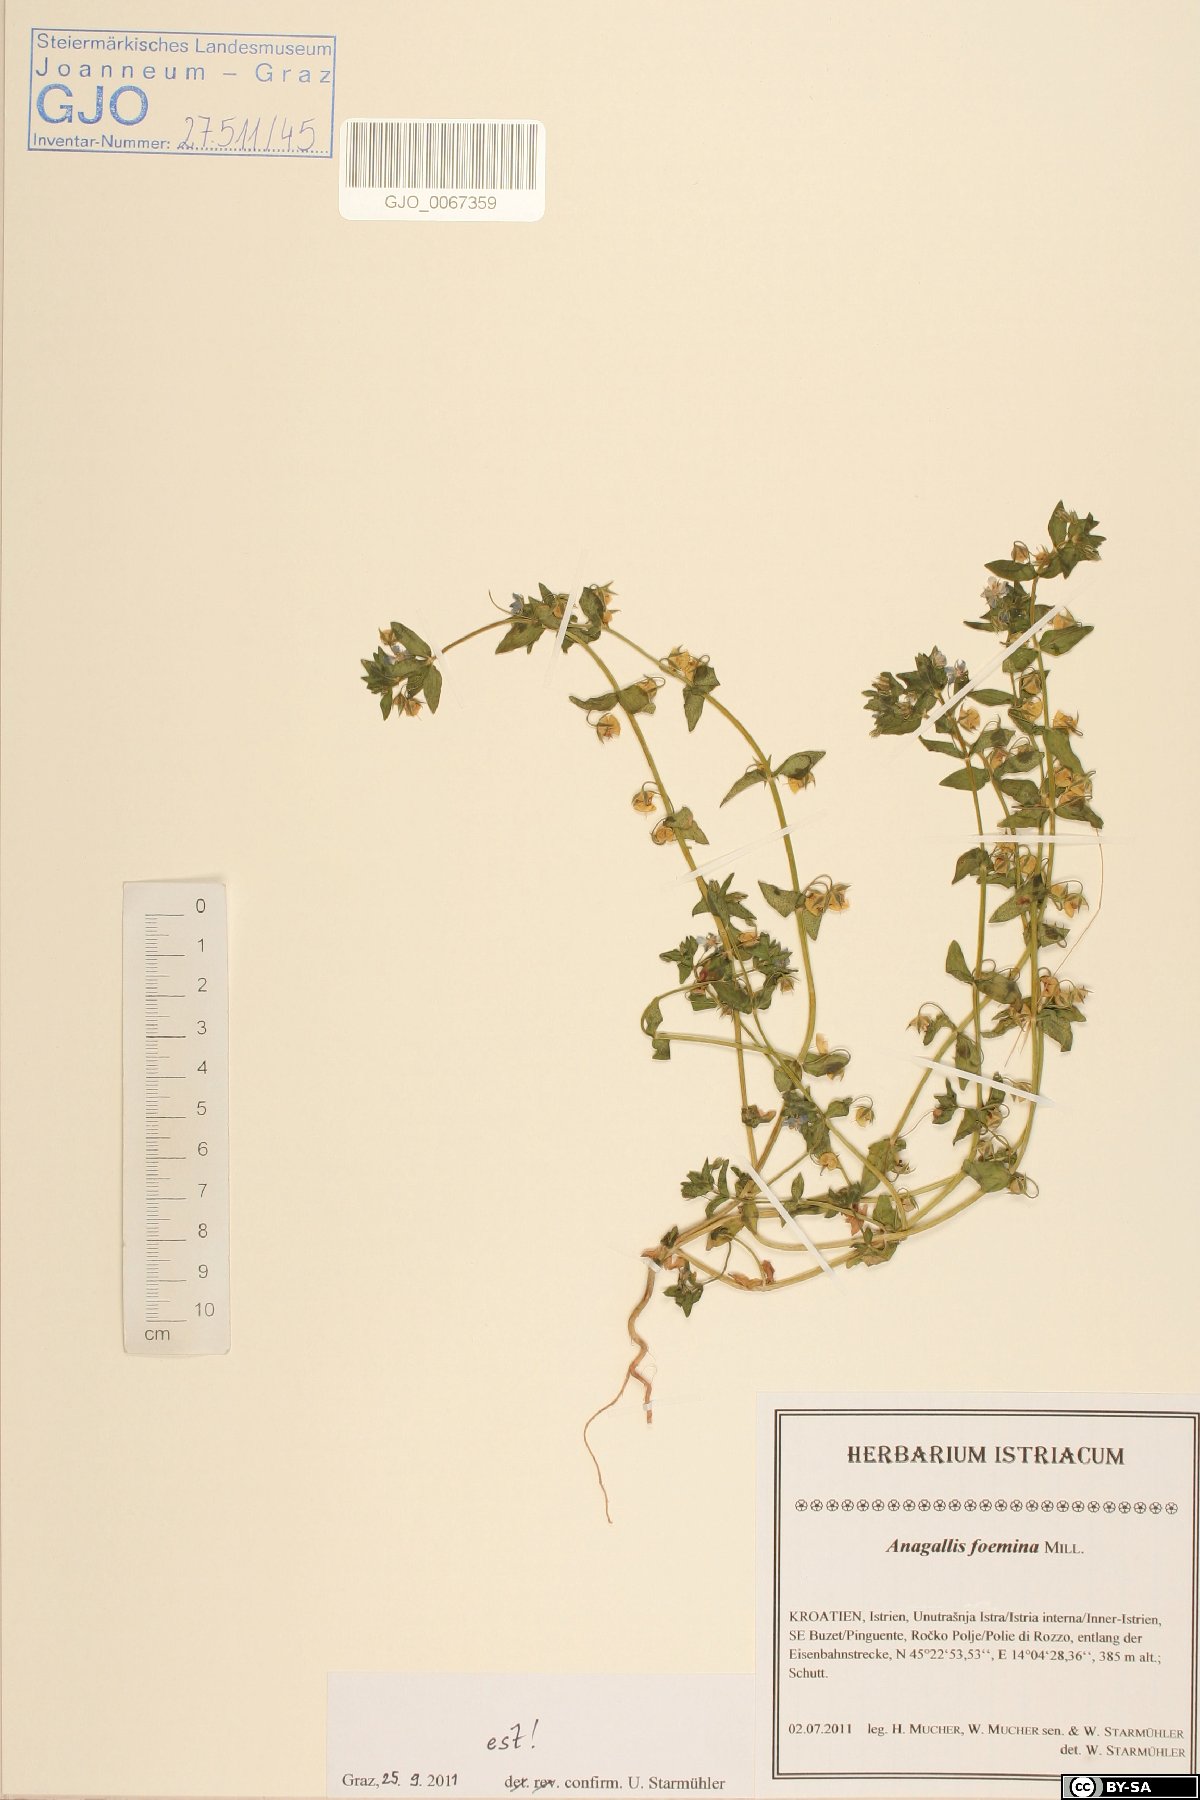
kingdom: Plantae
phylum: Tracheophyta
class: Magnoliopsida
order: Ericales
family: Primulaceae
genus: Lysimachia
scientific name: Lysimachia foemina
